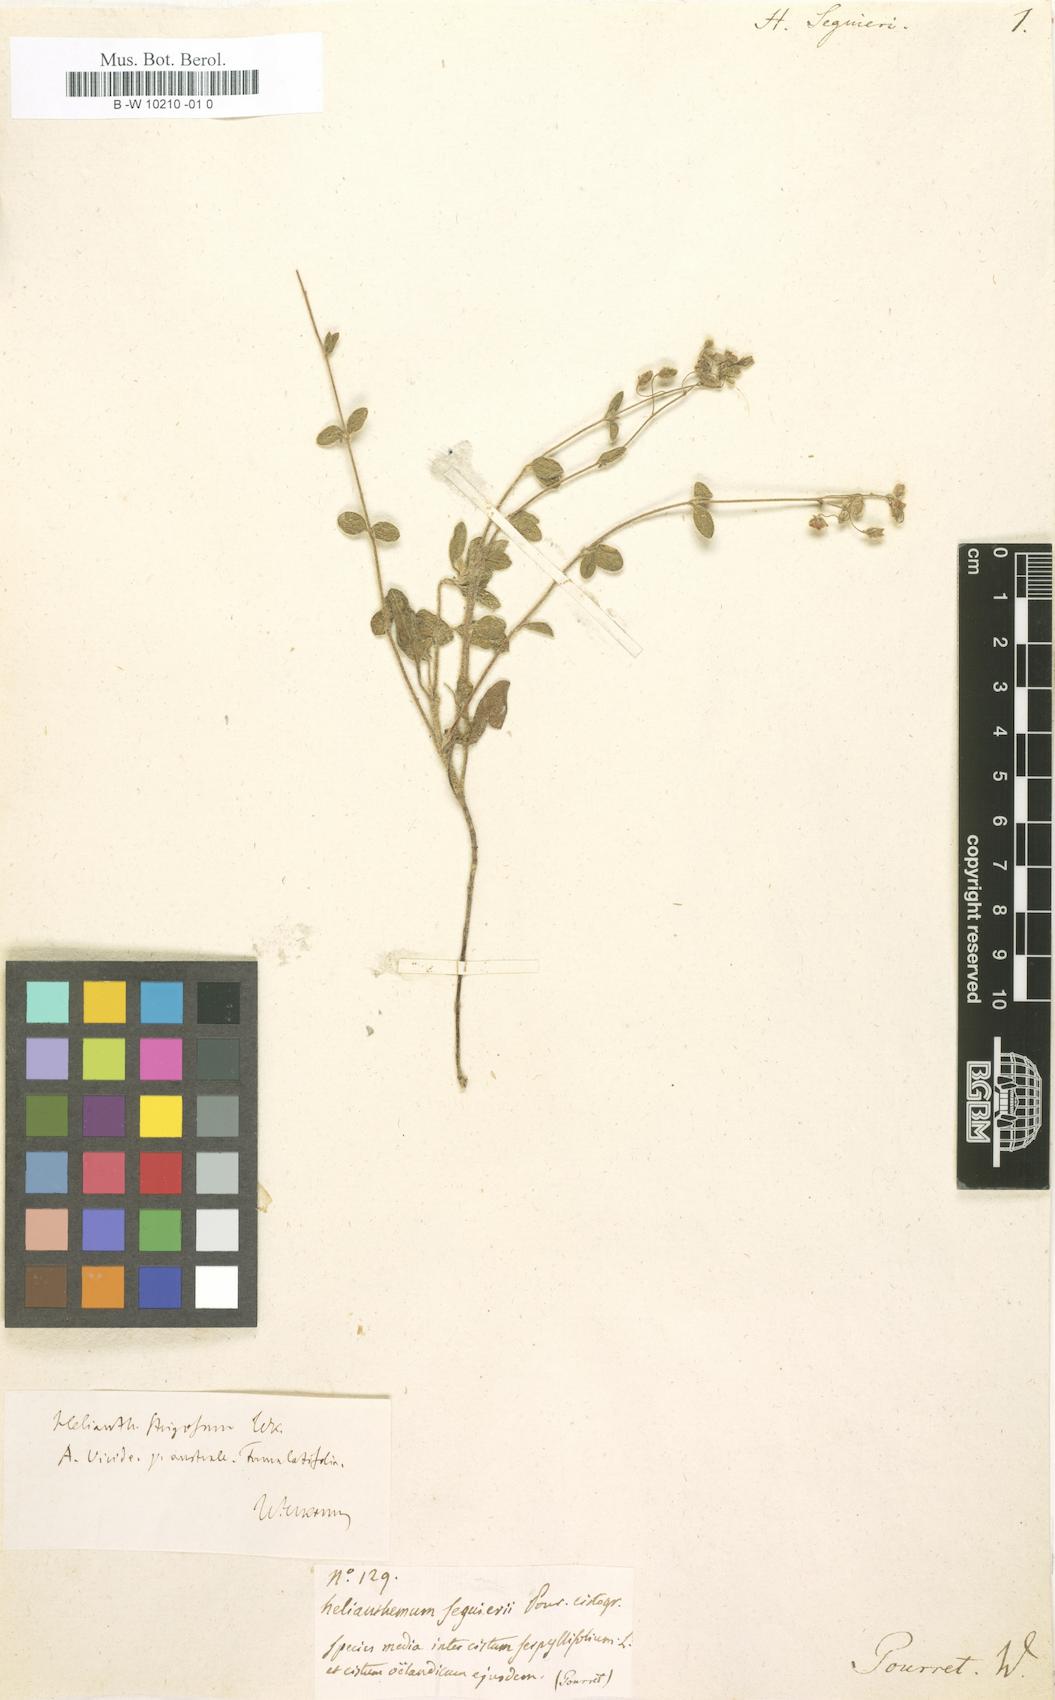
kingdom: Plantae
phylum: Tracheophyta
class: Magnoliopsida
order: Malvales
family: Cistaceae
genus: Helianthemum
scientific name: Helianthemum nummularium
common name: Common rock-rose
